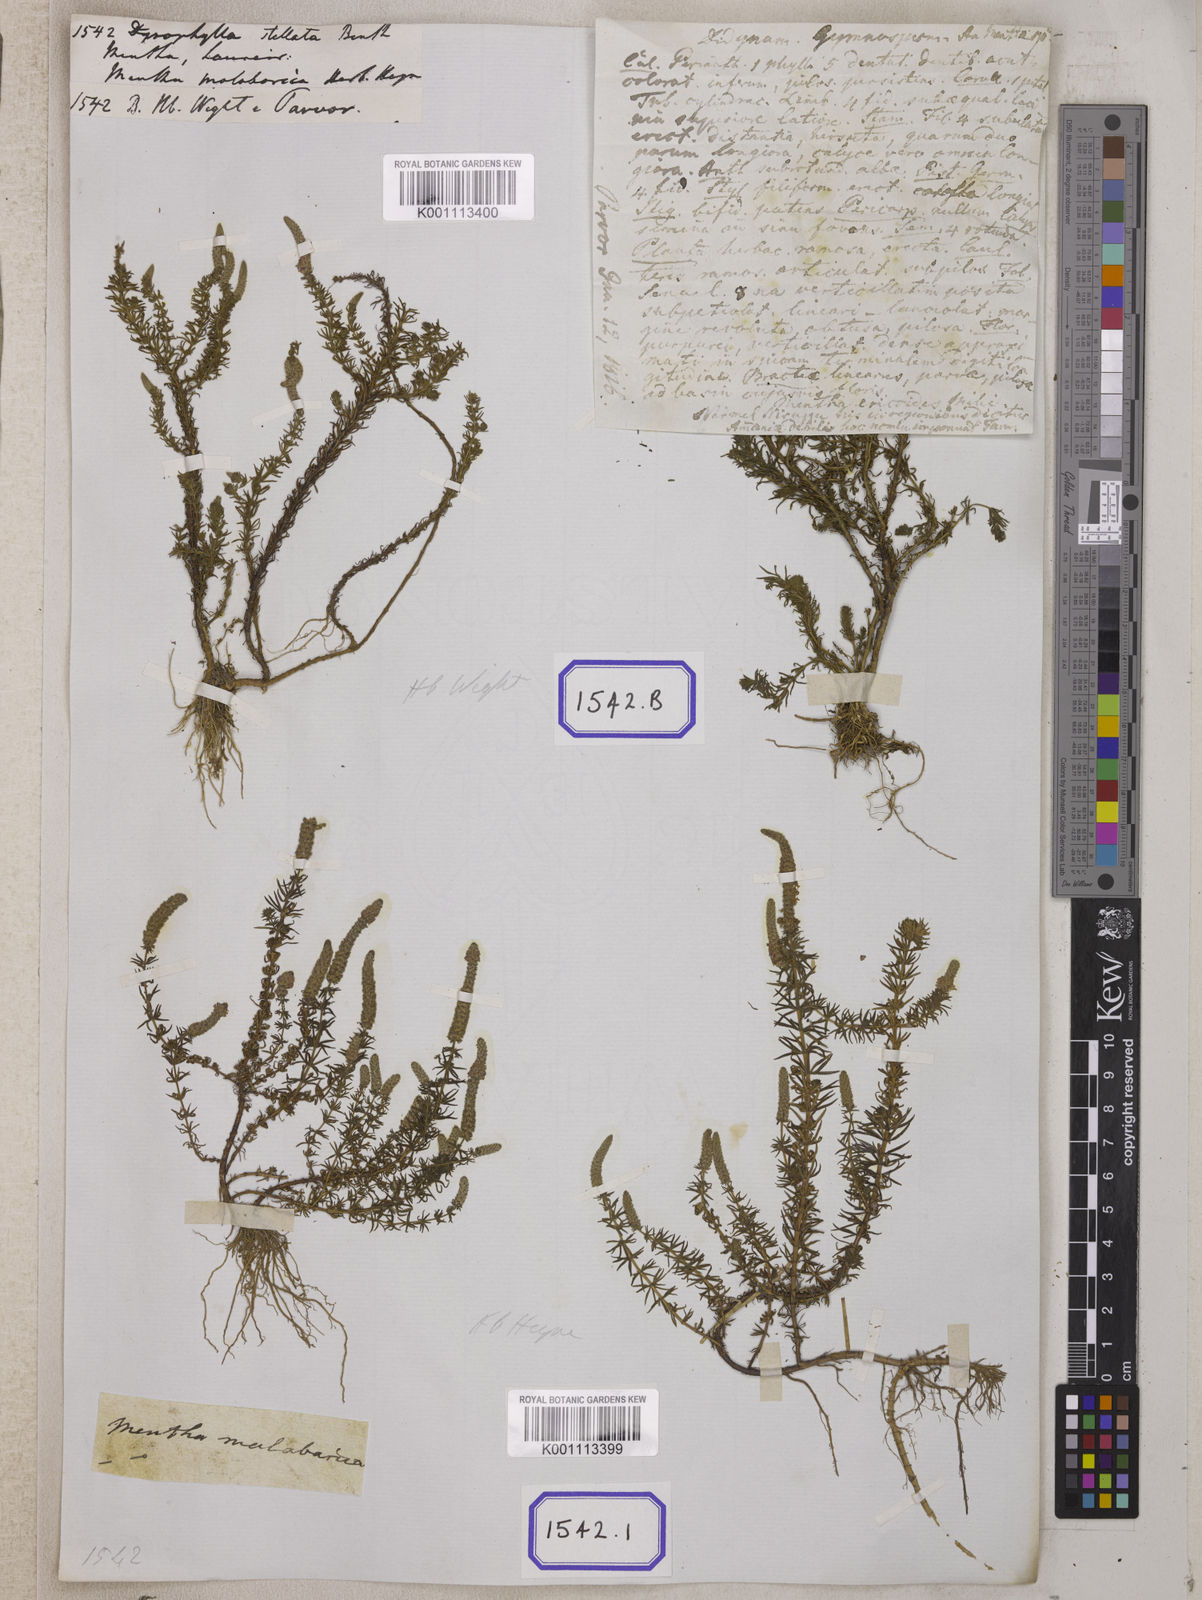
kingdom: Plantae
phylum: Tracheophyta
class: Magnoliopsida
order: Lamiales
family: Lamiaceae
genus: Pogostemon
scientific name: Pogostemon
